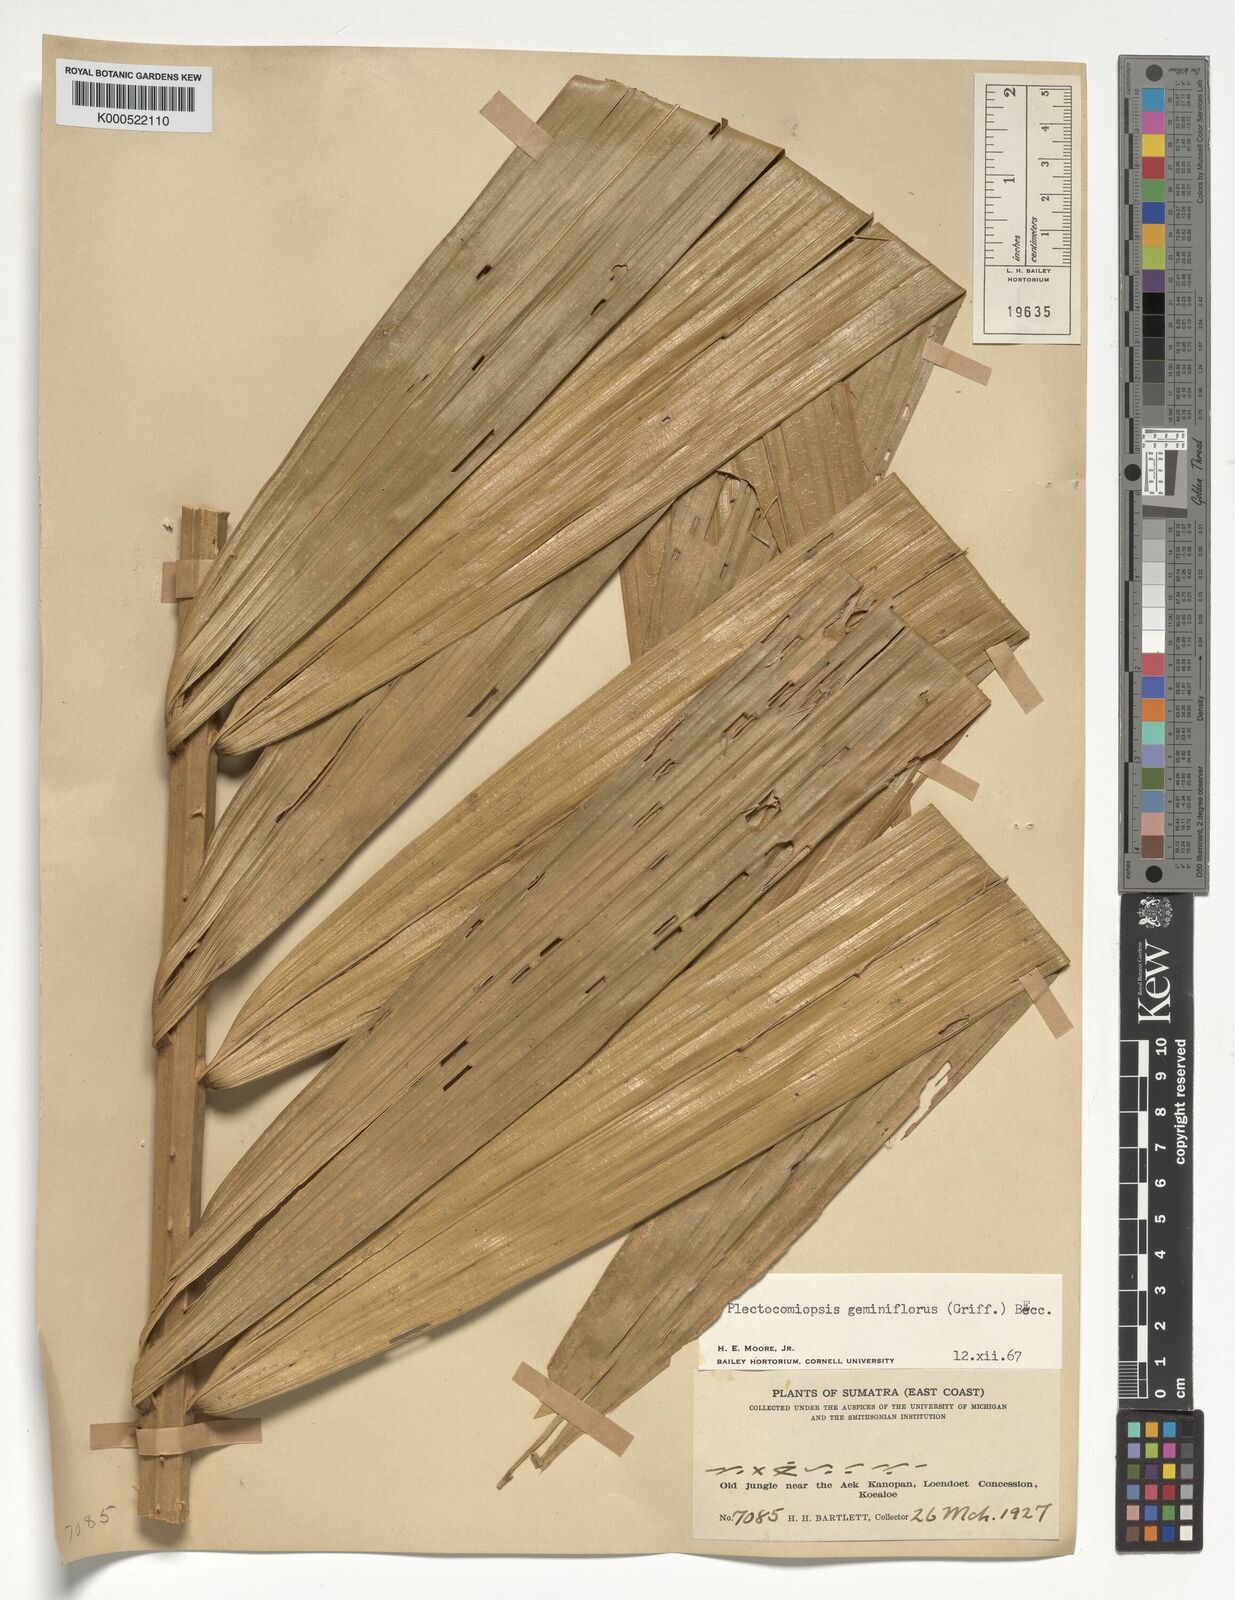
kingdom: Plantae
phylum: Tracheophyta
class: Liliopsida
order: Arecales
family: Arecaceae
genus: Plectocomiopsis
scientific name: Plectocomiopsis geminiflora
